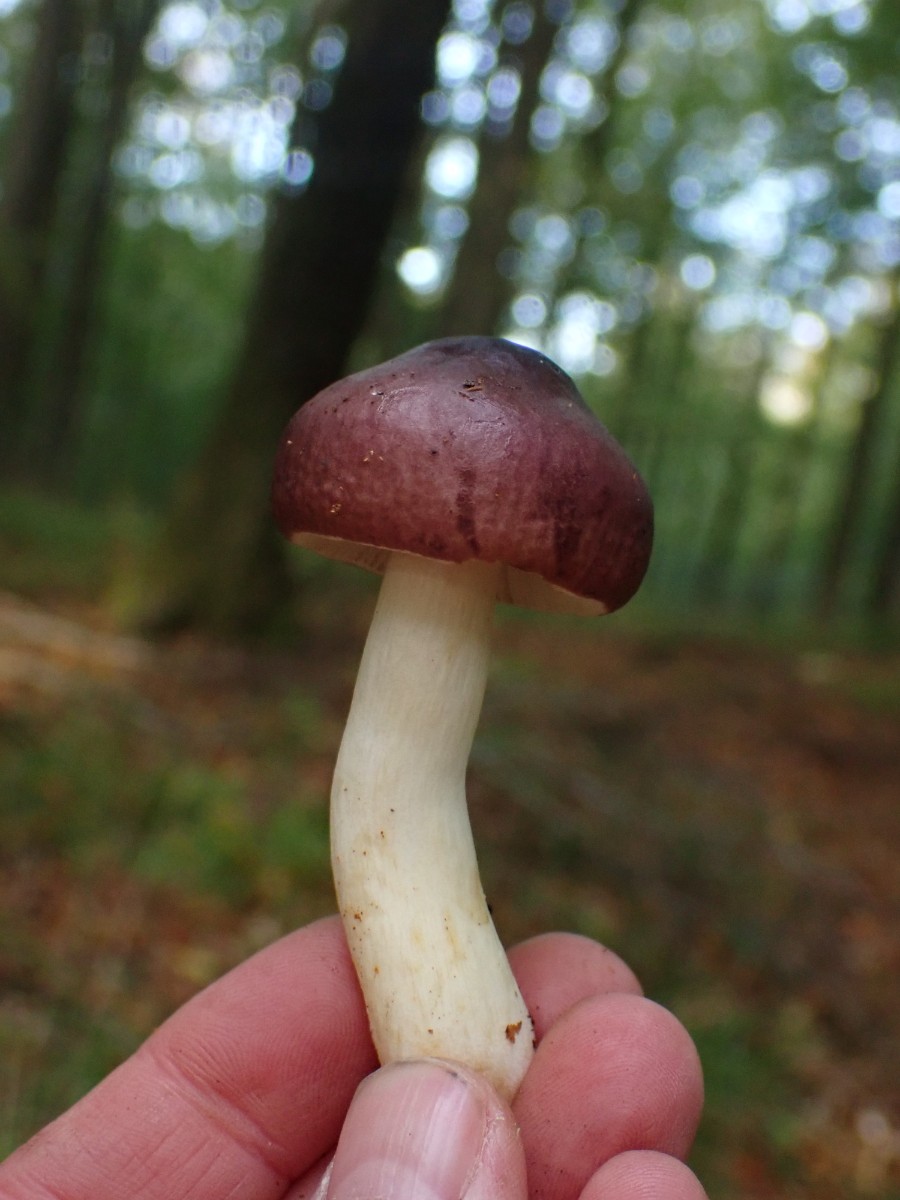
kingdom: Fungi
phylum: Basidiomycota
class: Agaricomycetes
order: Russulales
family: Russulaceae
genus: Russula
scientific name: Russula
